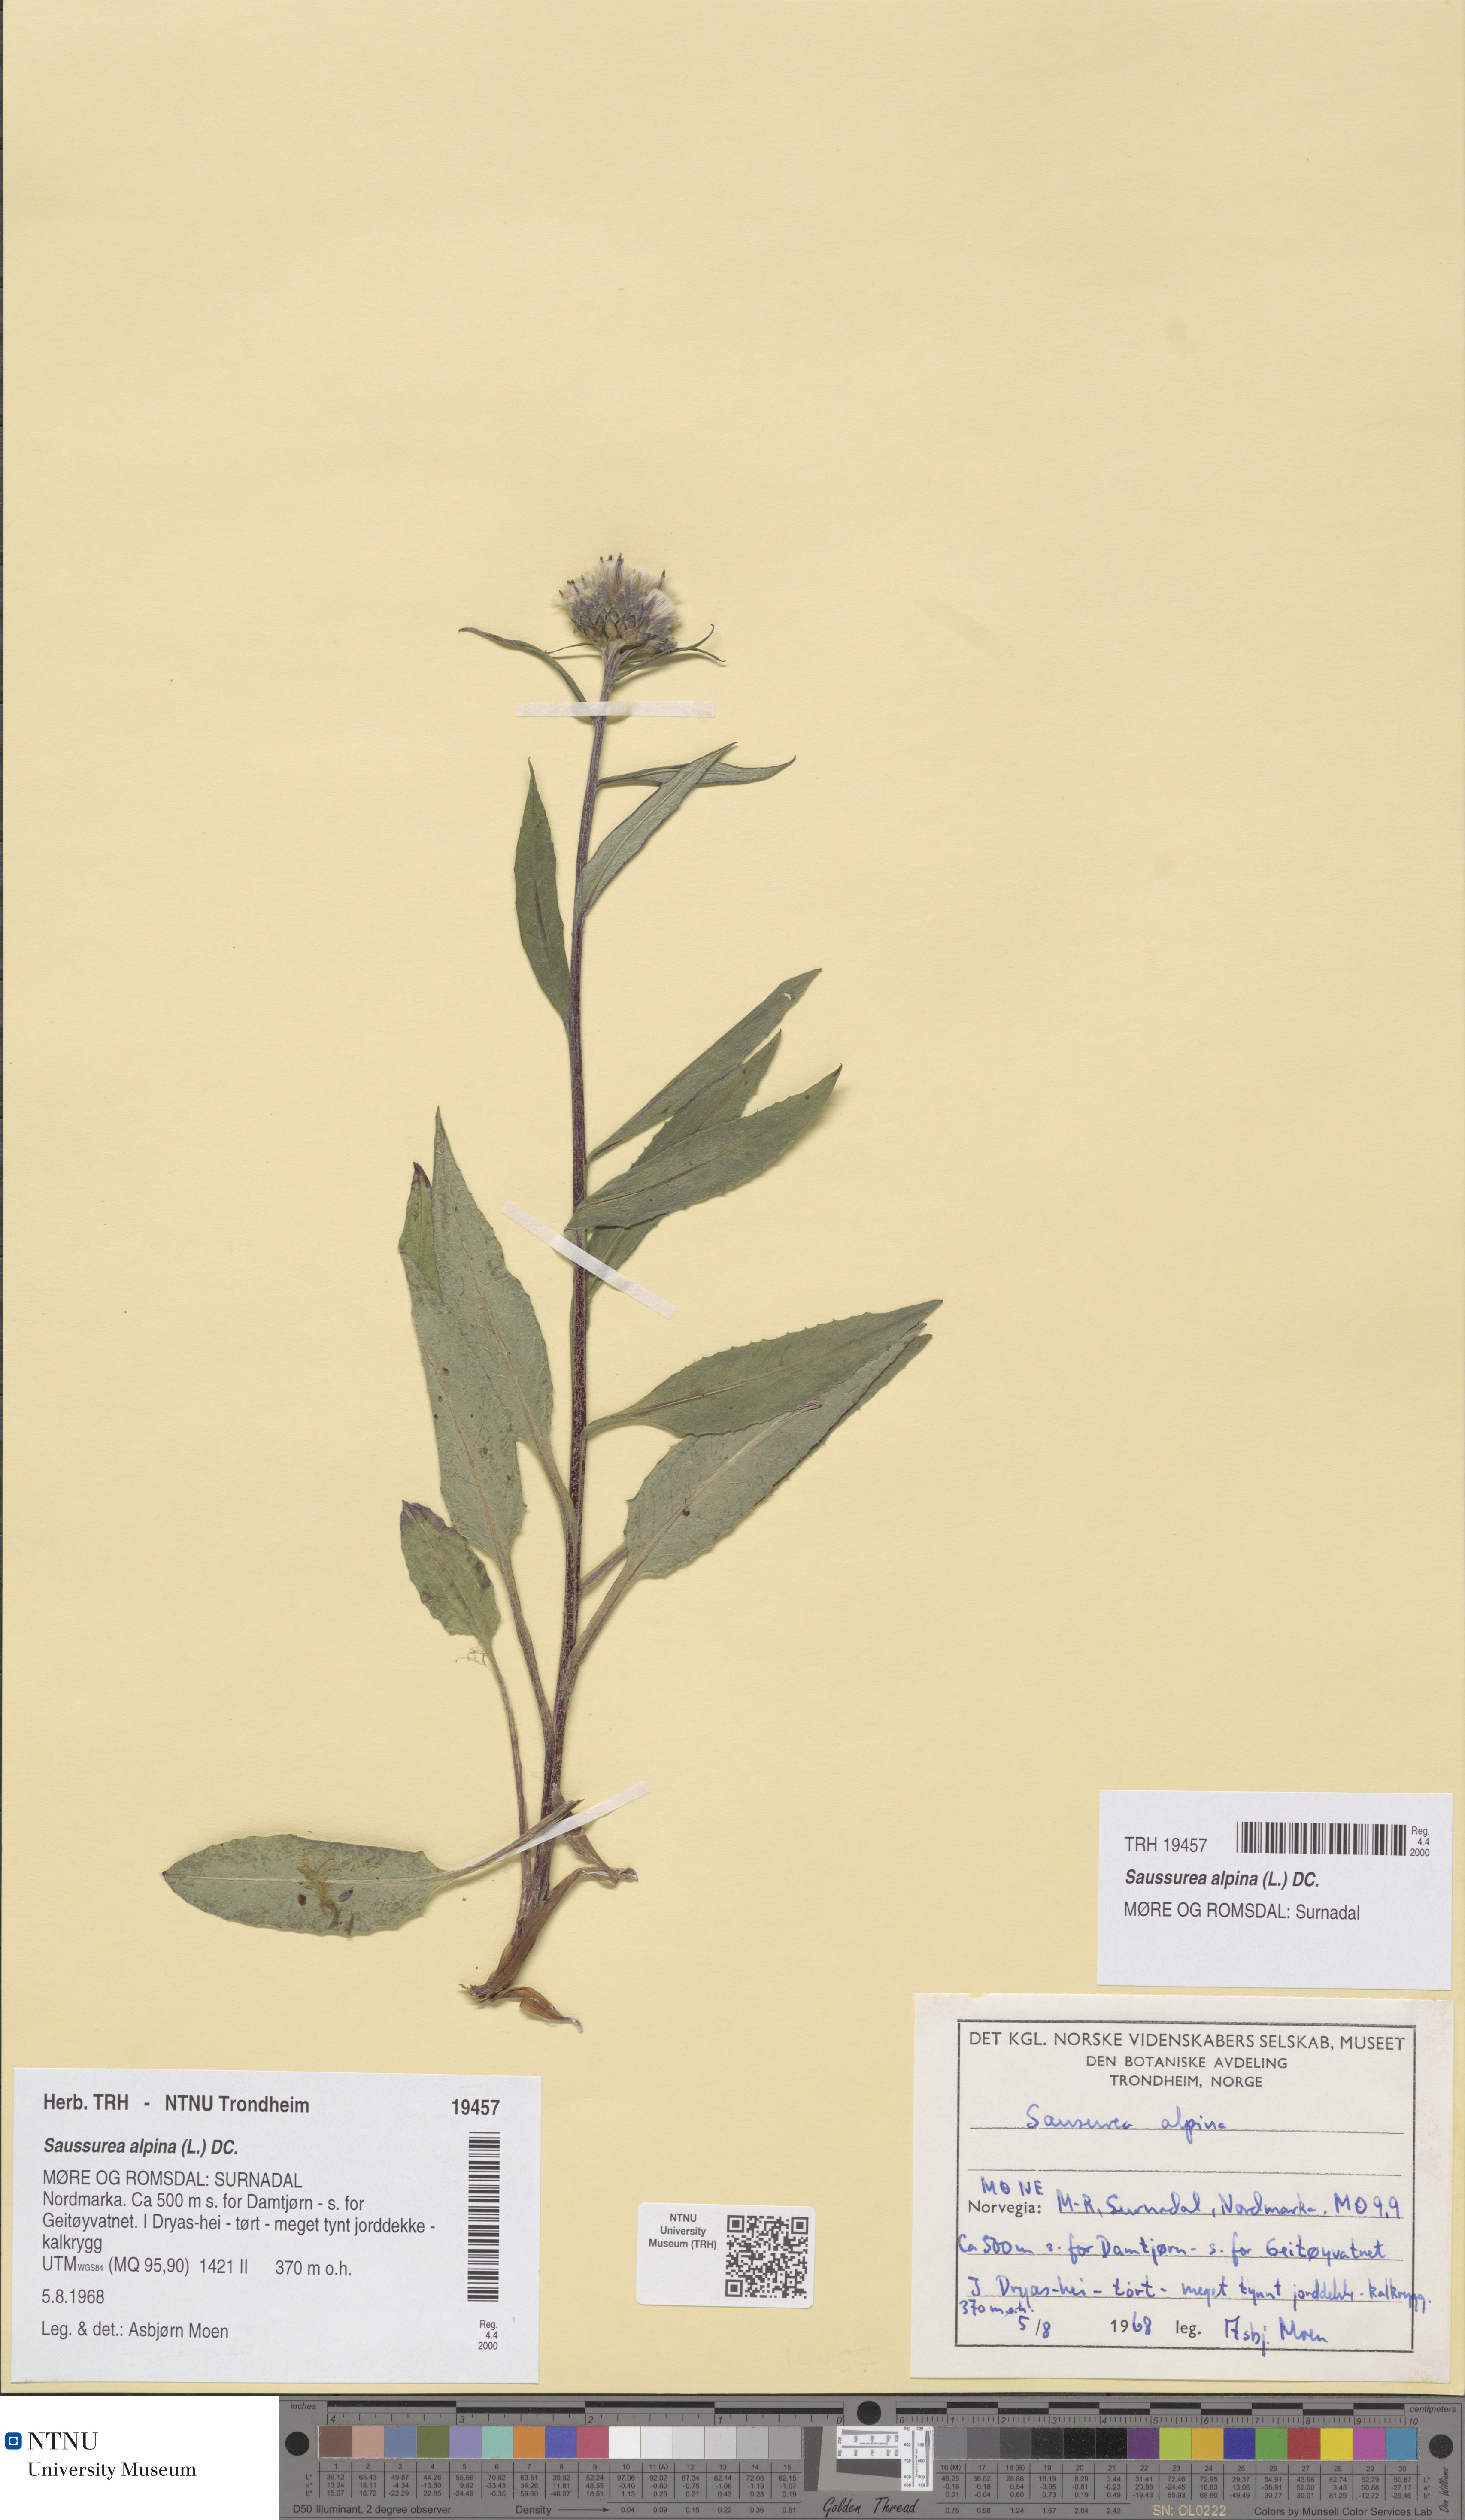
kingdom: Plantae
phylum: Tracheophyta
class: Magnoliopsida
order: Asterales
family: Asteraceae
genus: Saussurea
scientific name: Saussurea alpina
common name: Alpine saw-wort
